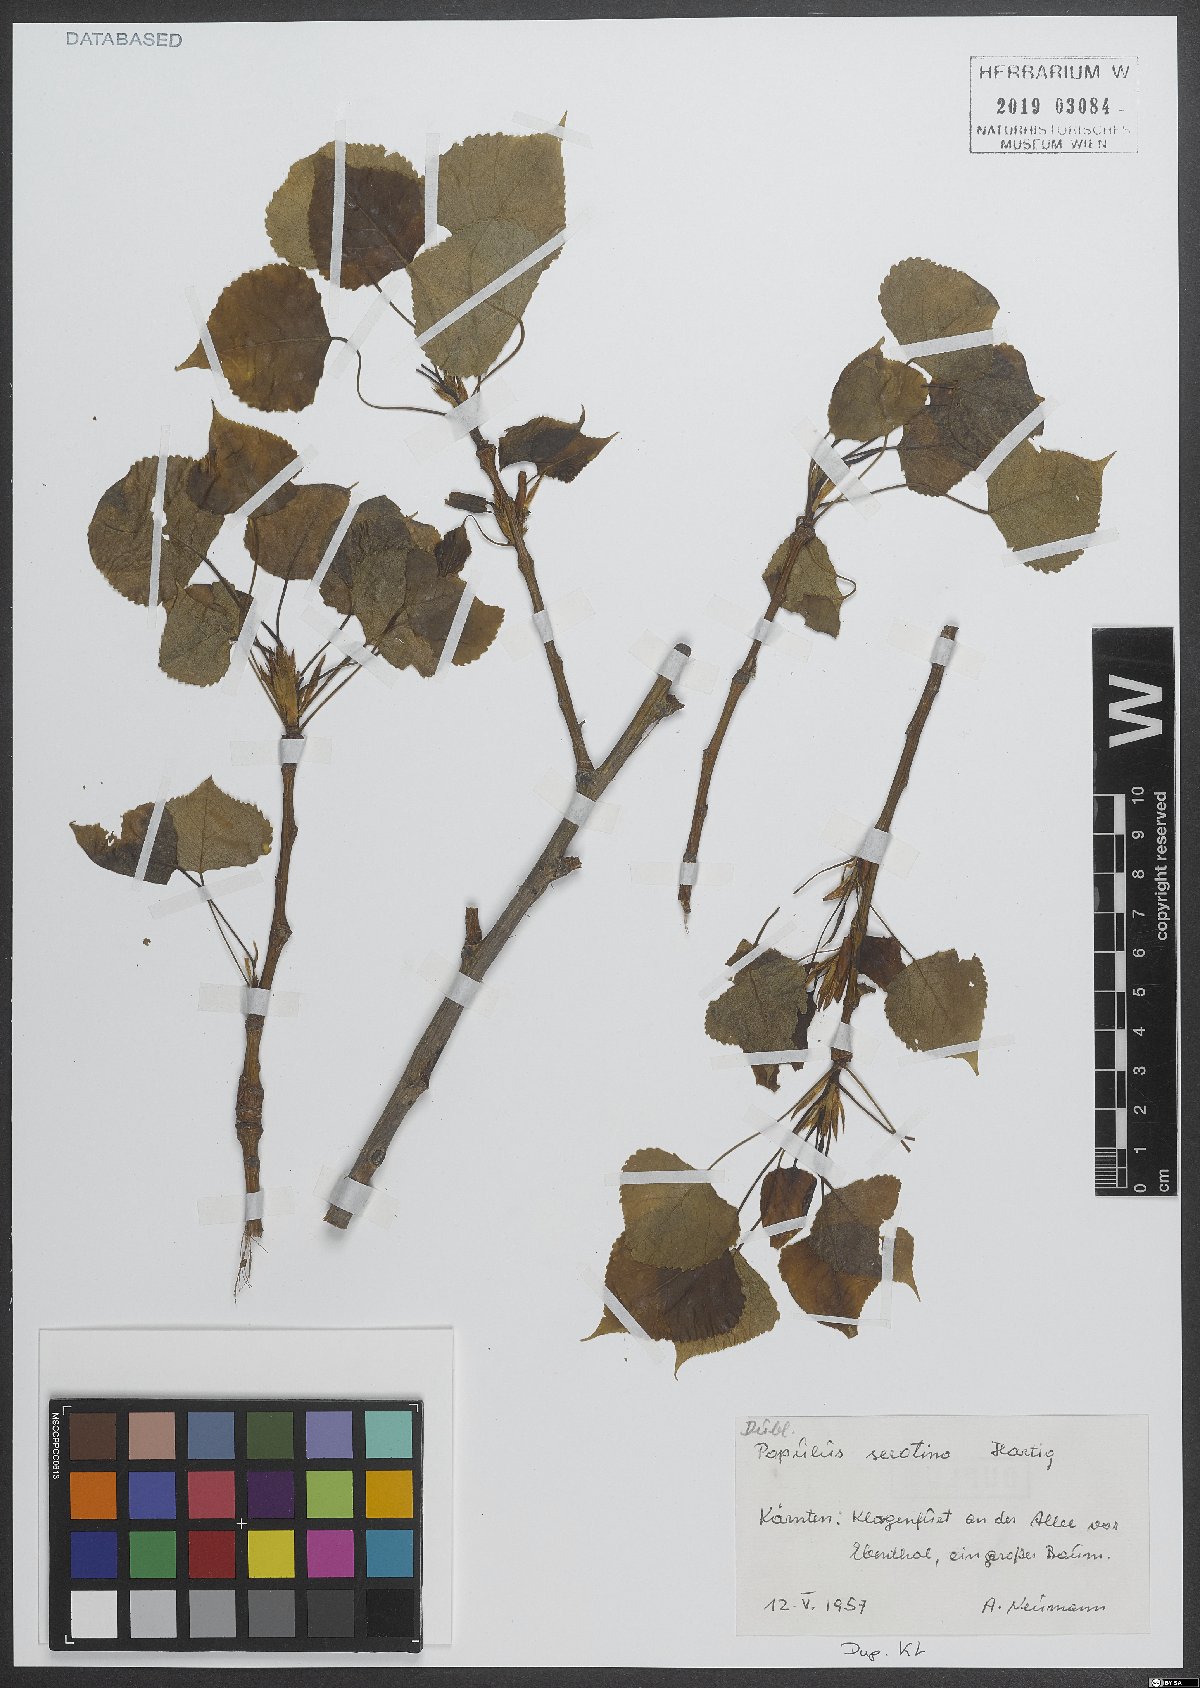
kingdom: Plantae
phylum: Tracheophyta
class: Magnoliopsida
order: Malpighiales
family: Salicaceae
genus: Populus
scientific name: Populus canadensis
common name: Carolina poplar
